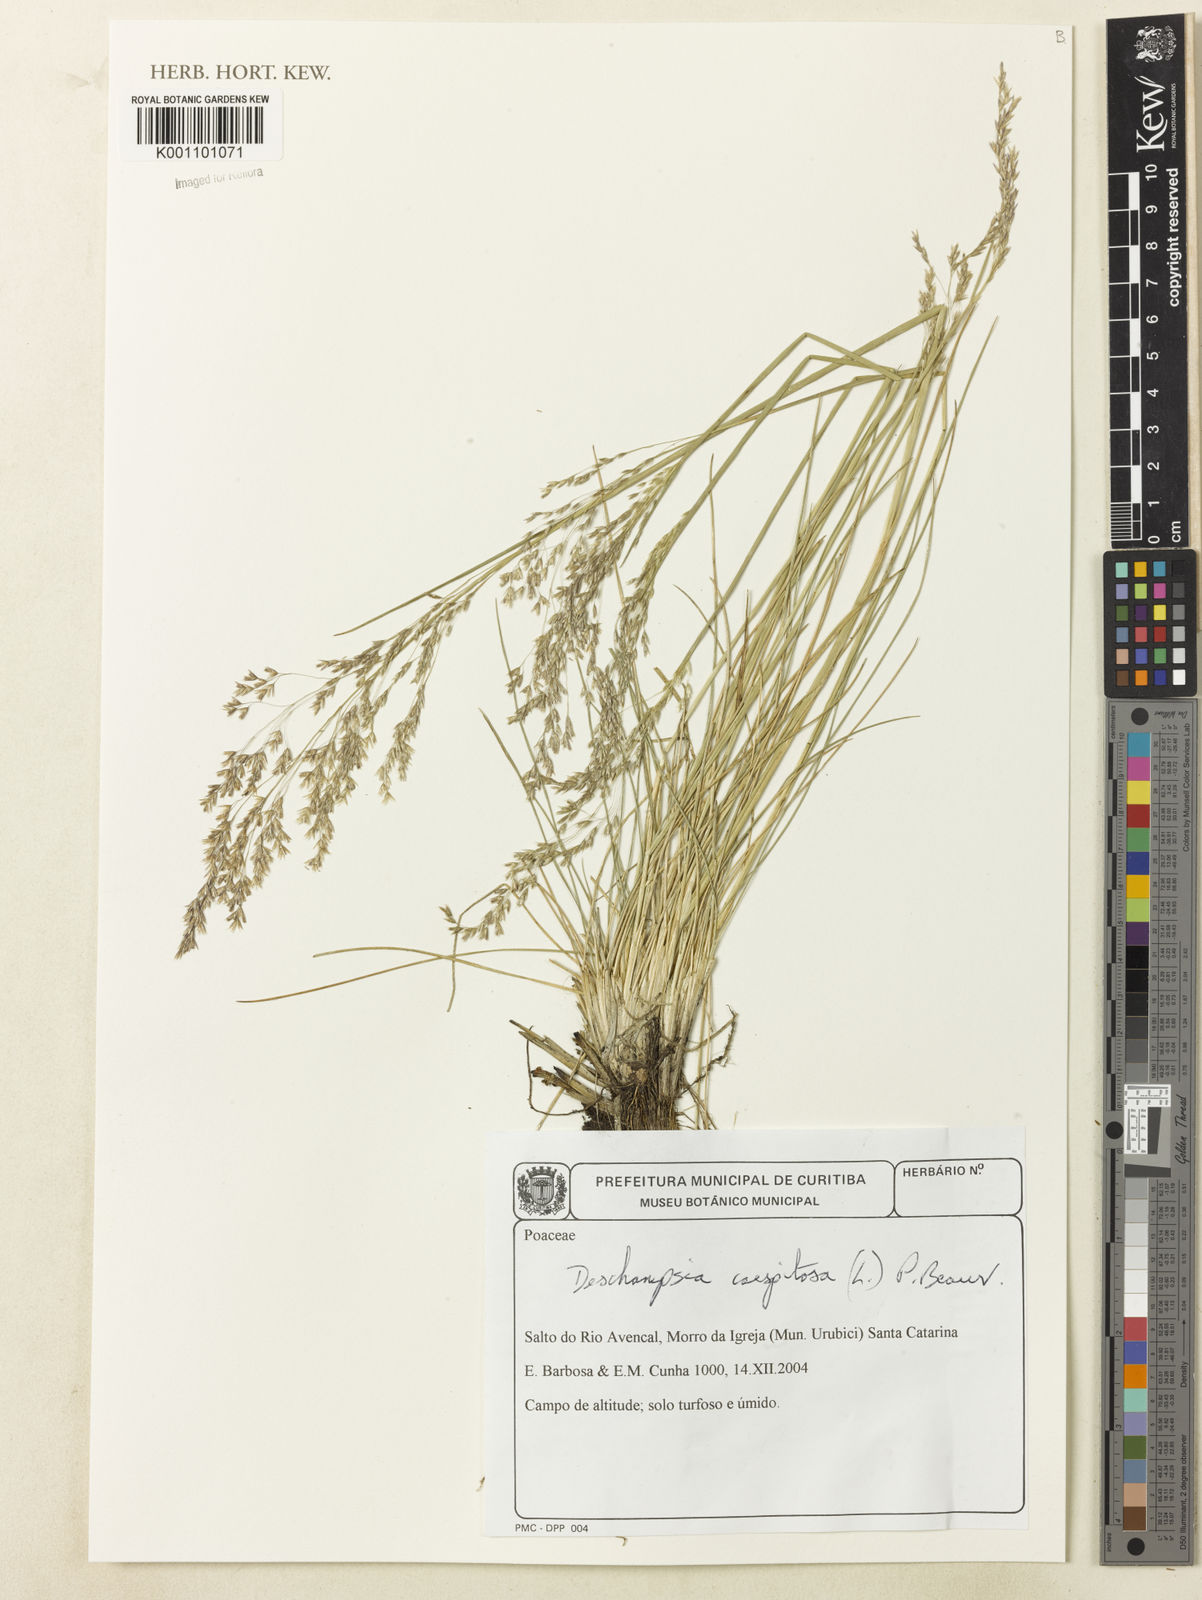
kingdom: Plantae
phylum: Tracheophyta
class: Liliopsida
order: Poales
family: Poaceae
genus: Deschampsia
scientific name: Deschampsia
